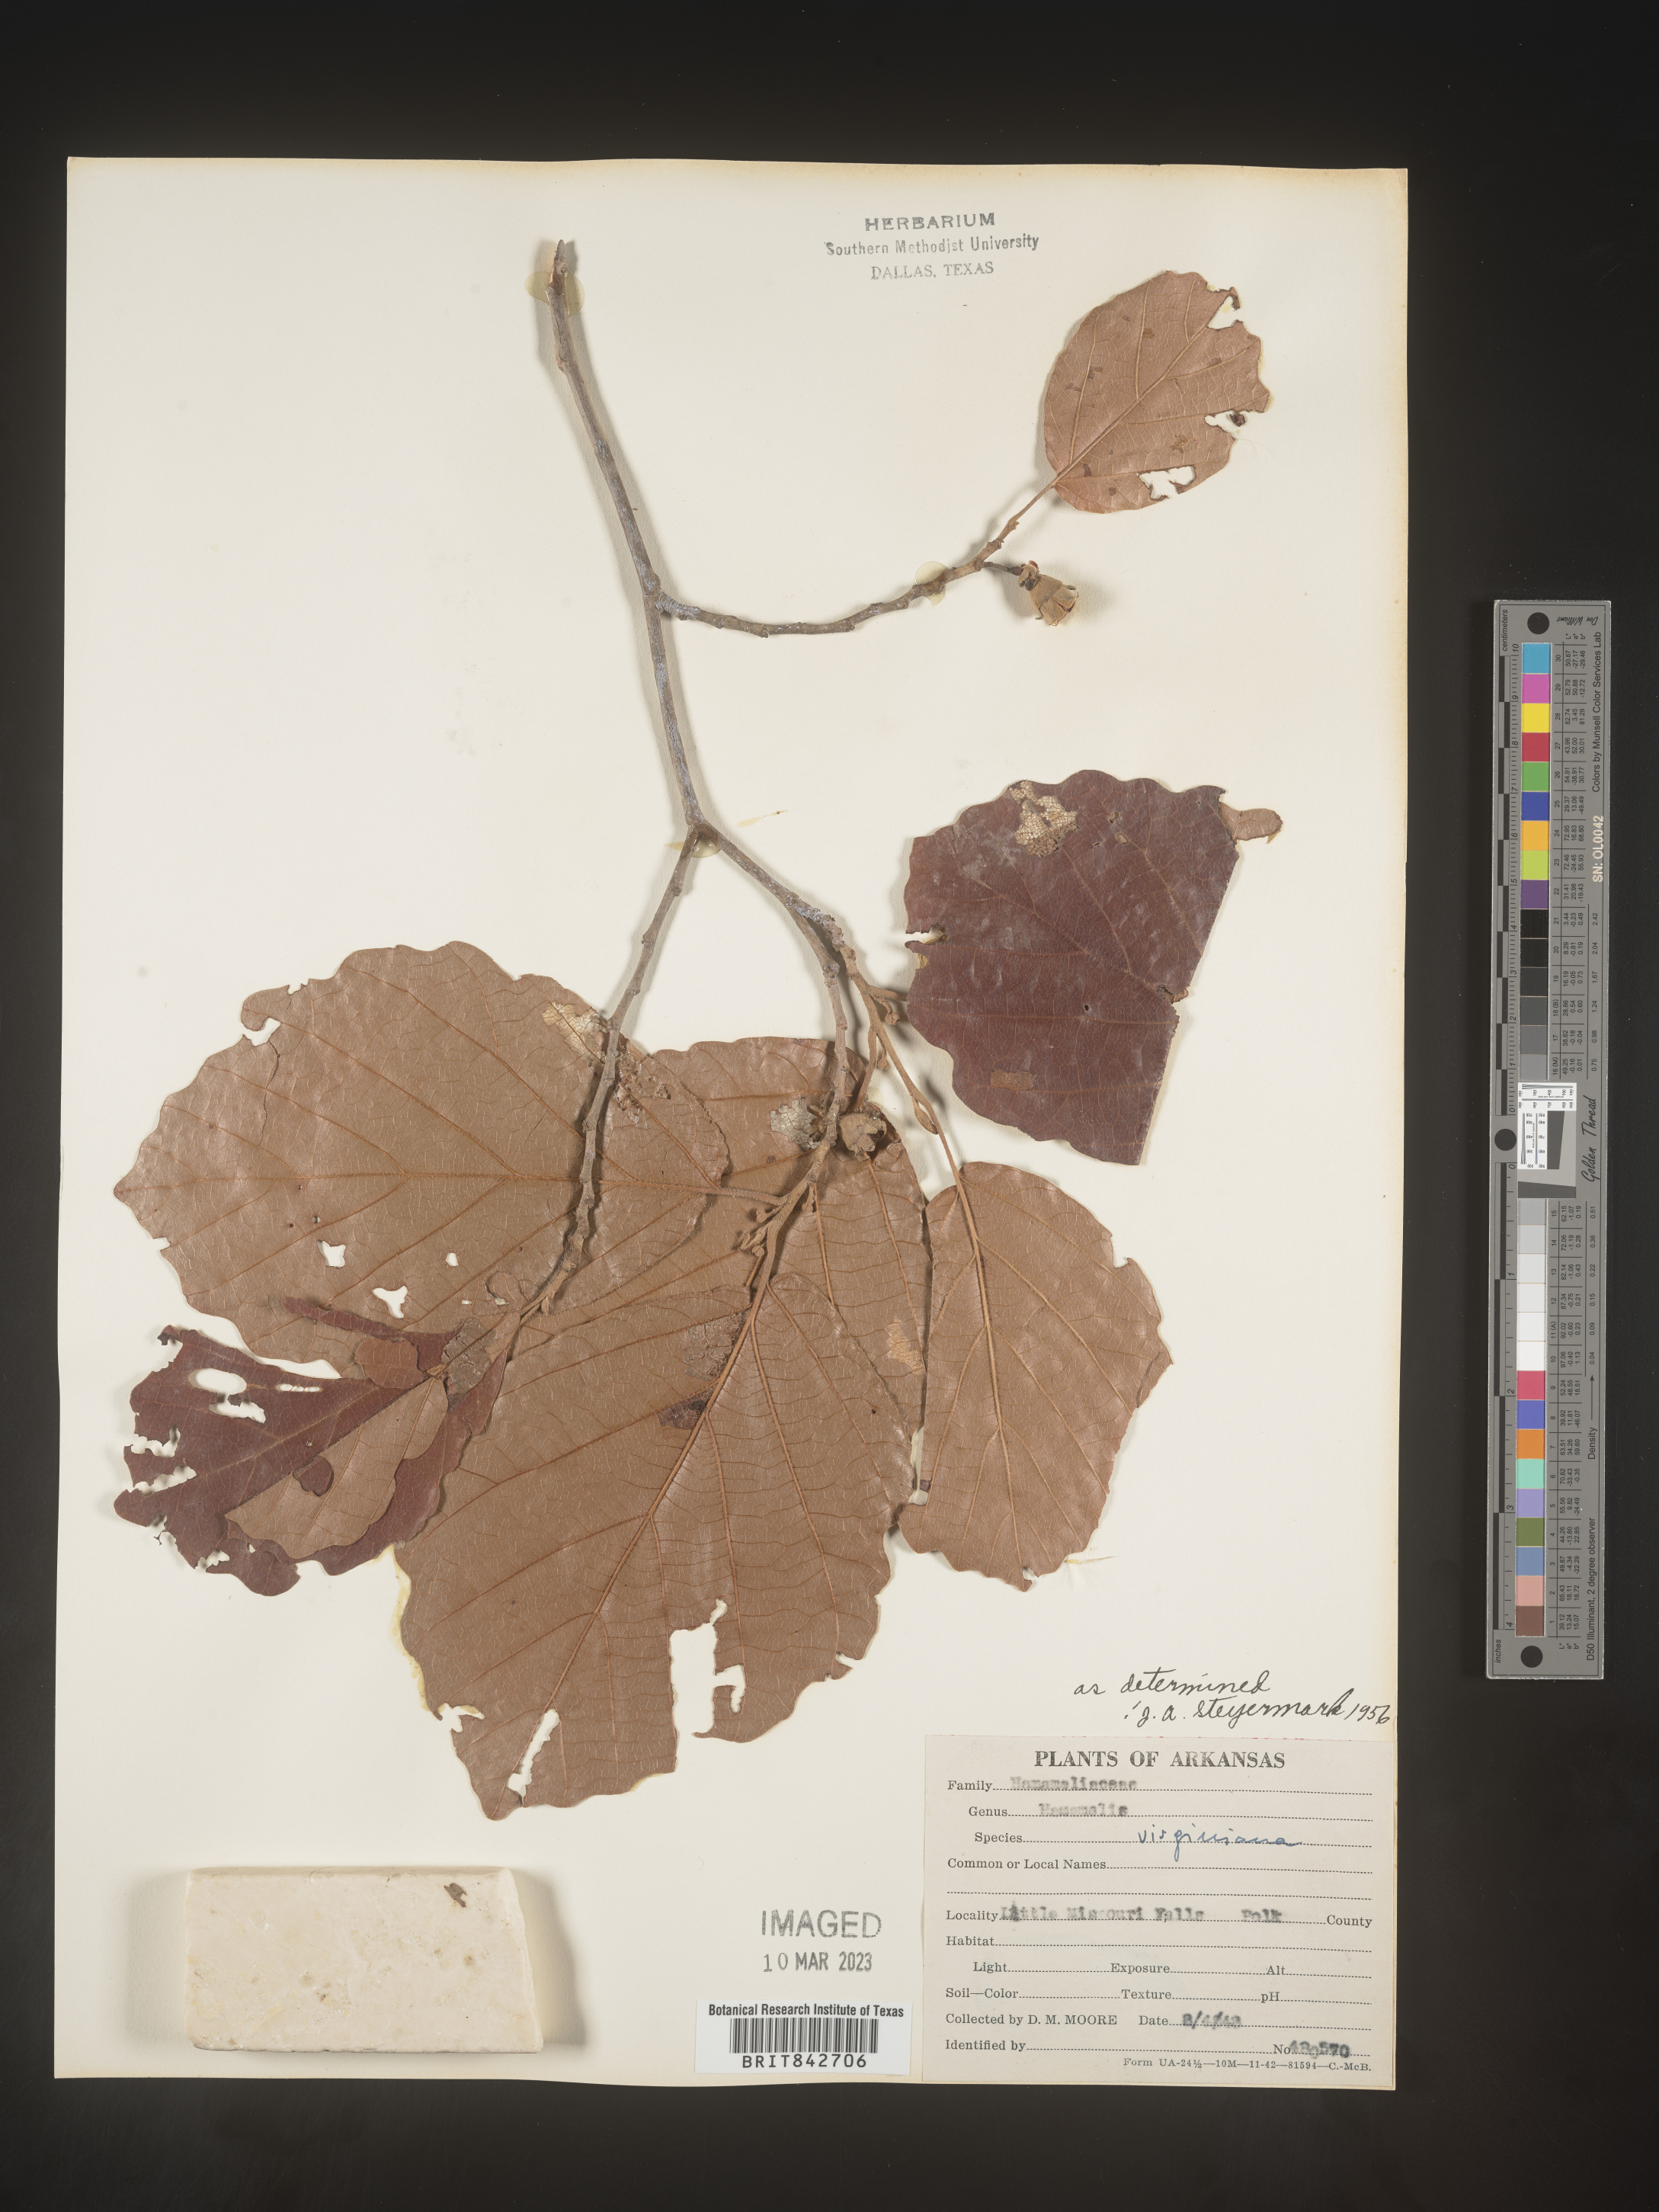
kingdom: Plantae
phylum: Tracheophyta
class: Magnoliopsida
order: Saxifragales
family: Hamamelidaceae
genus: Hamamelis
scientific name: Hamamelis virginiana
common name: Witch-hazel
